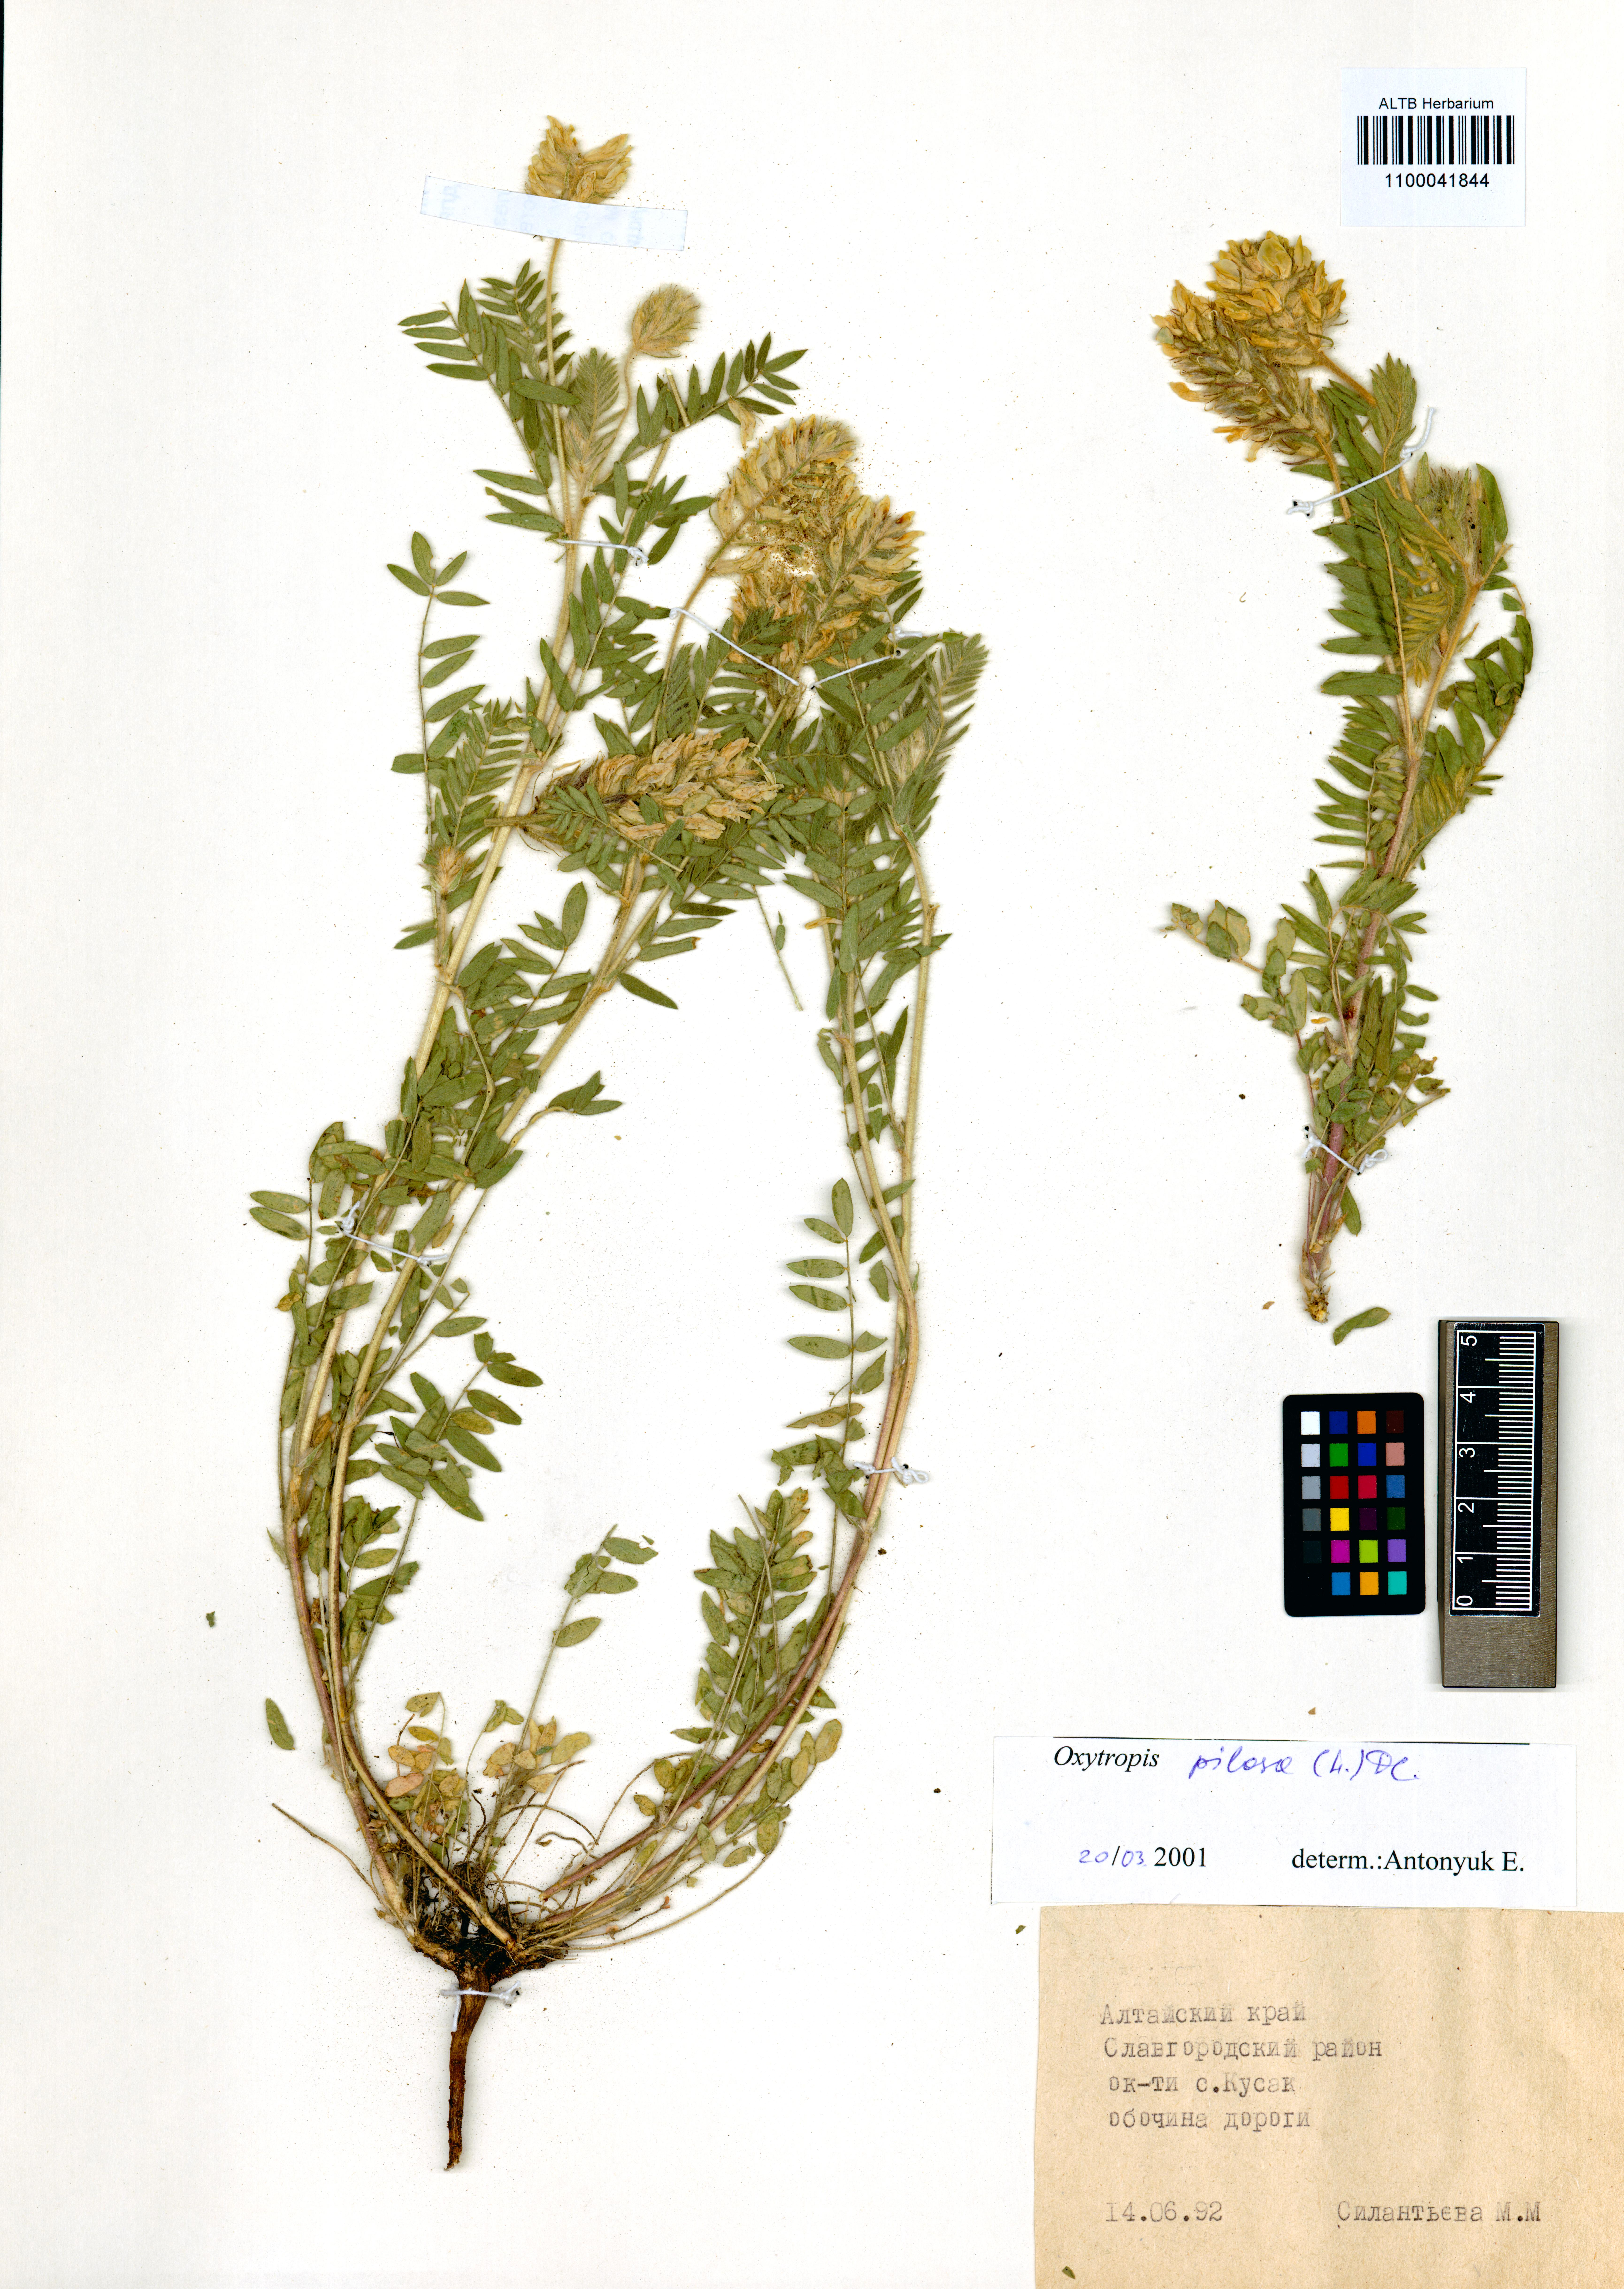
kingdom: Plantae
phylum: Tracheophyta
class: Magnoliopsida
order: Fabales
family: Fabaceae
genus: Oxytropis
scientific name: Oxytropis pilosa
